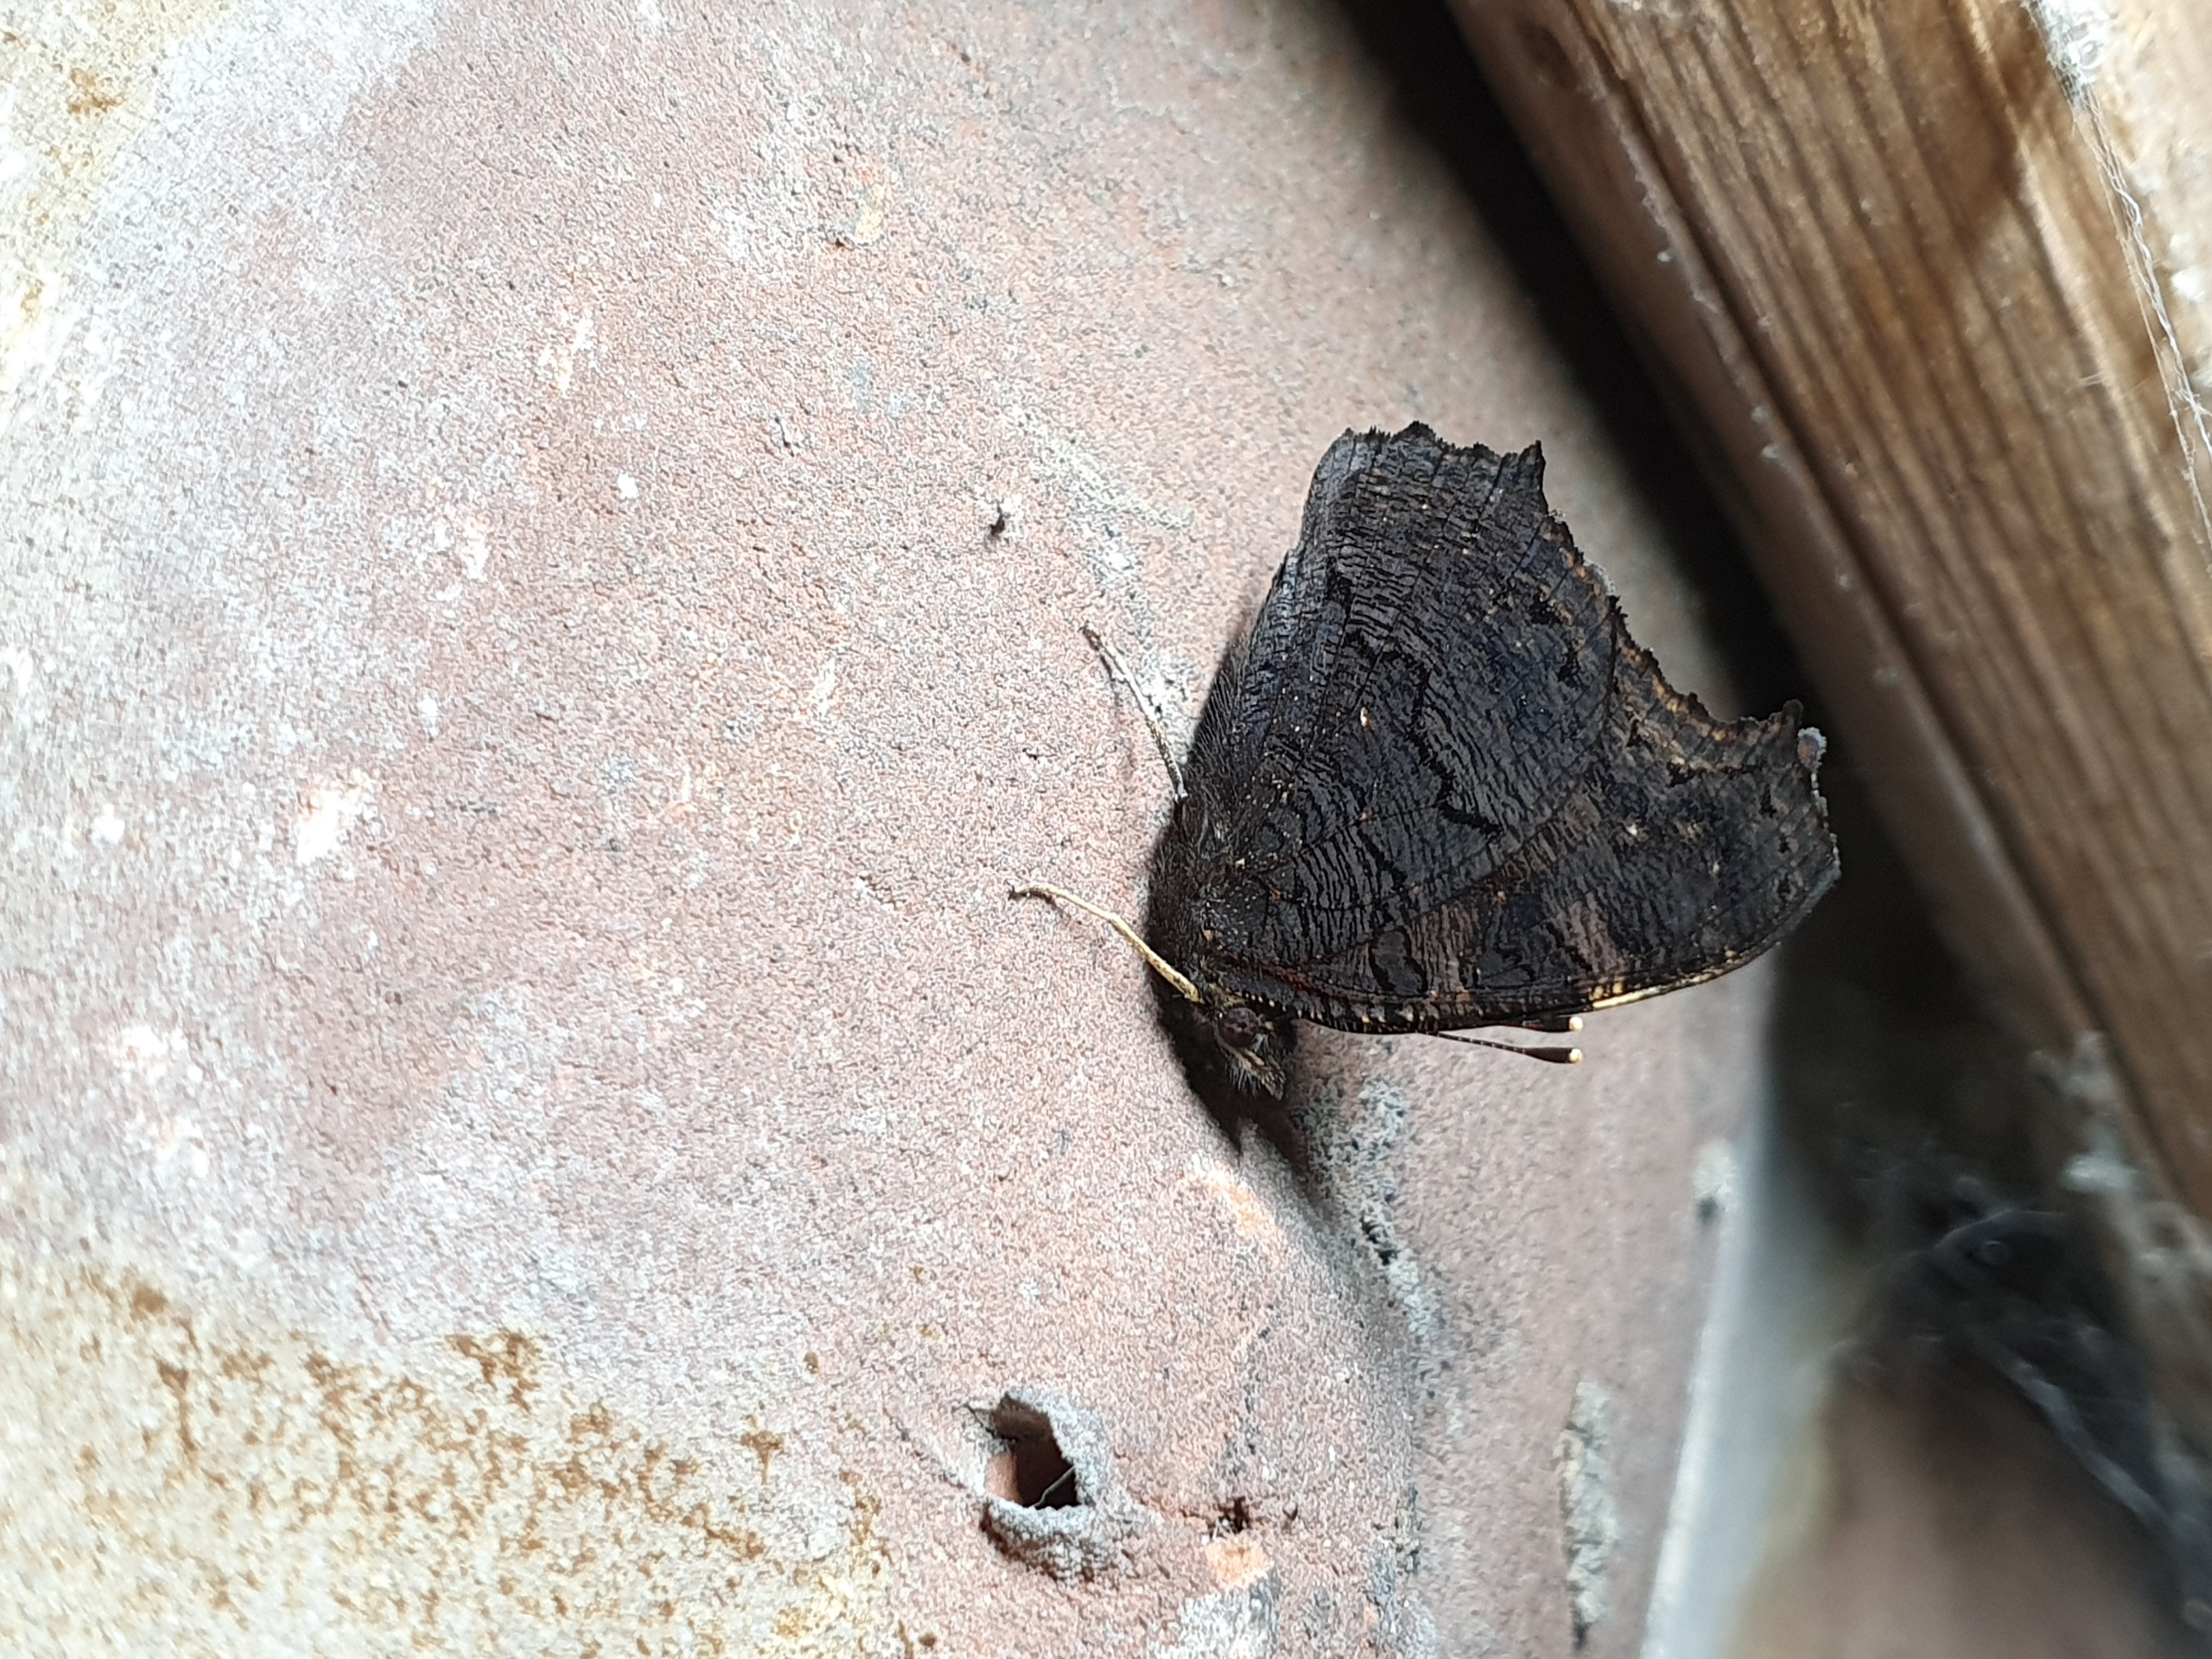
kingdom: Animalia
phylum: Arthropoda
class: Insecta
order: Lepidoptera
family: Nymphalidae
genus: Aglais
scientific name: Aglais io
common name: Dagpåfugleøje
